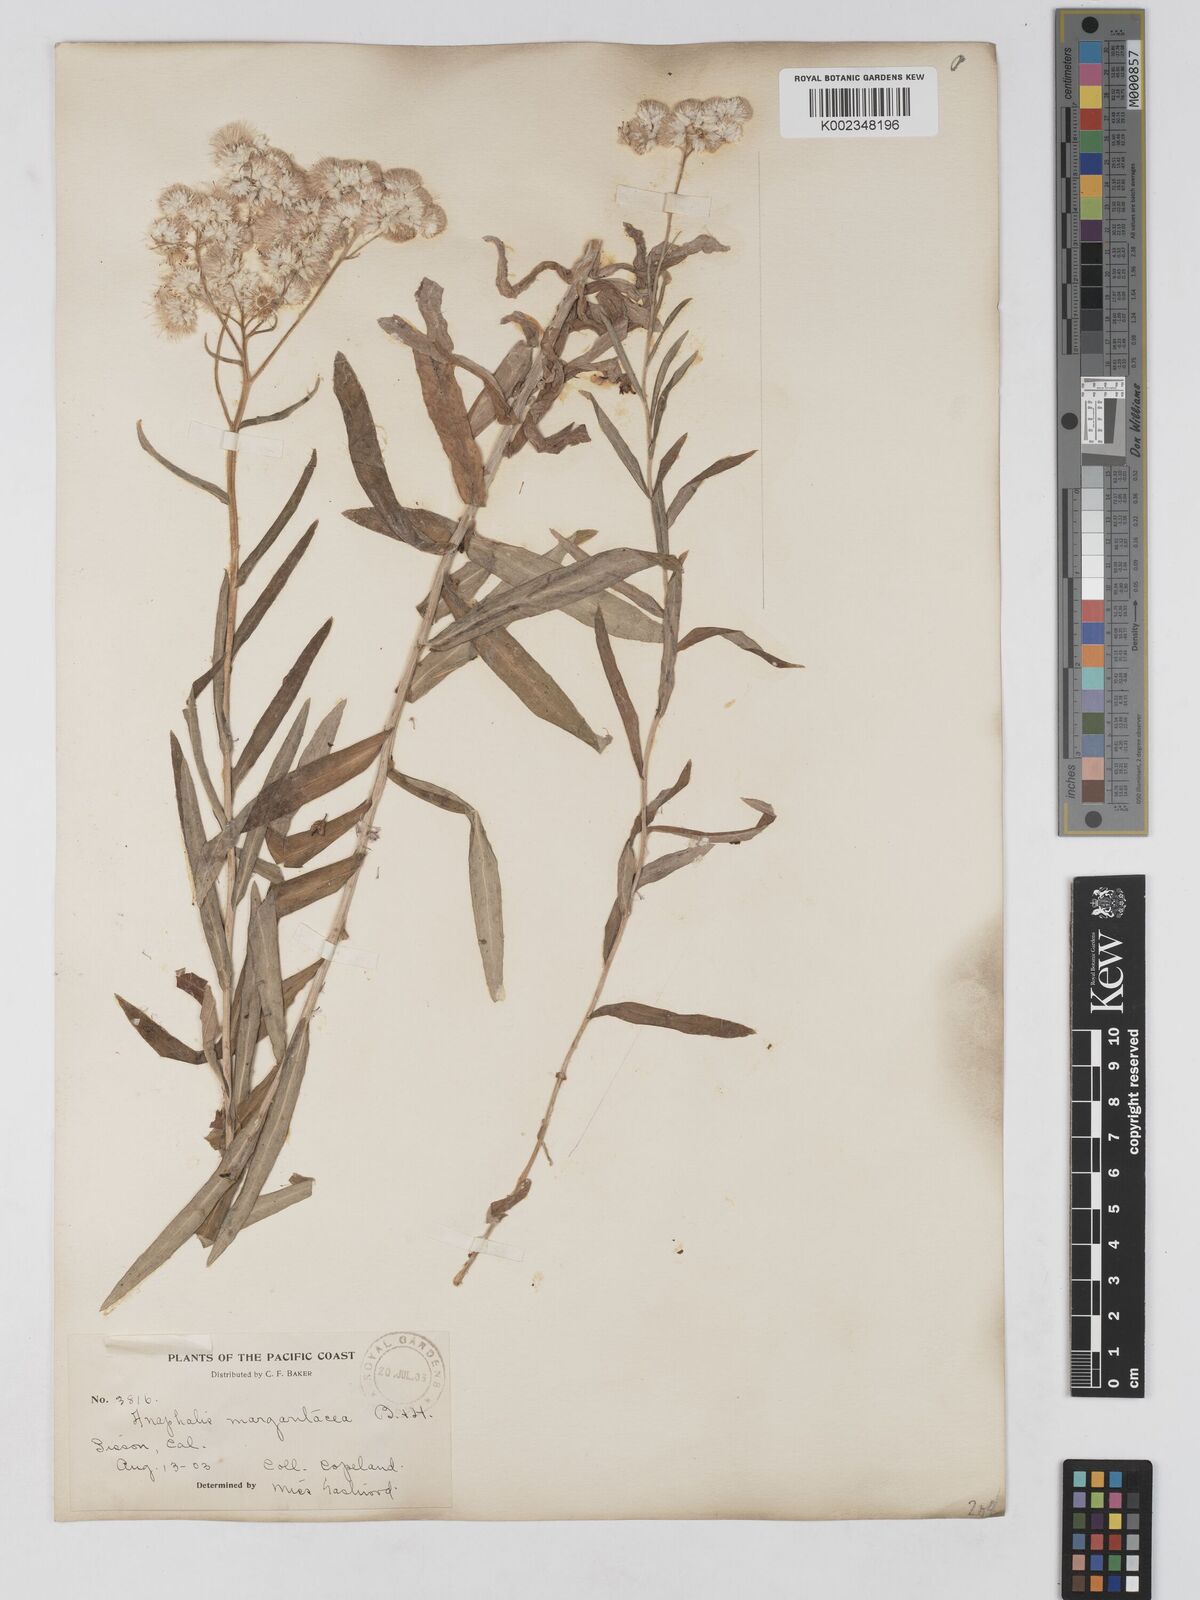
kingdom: Plantae
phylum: Tracheophyta
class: Magnoliopsida
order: Asterales
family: Asteraceae
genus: Anaphalis
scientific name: Anaphalis margaritacea
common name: Pearly everlasting
